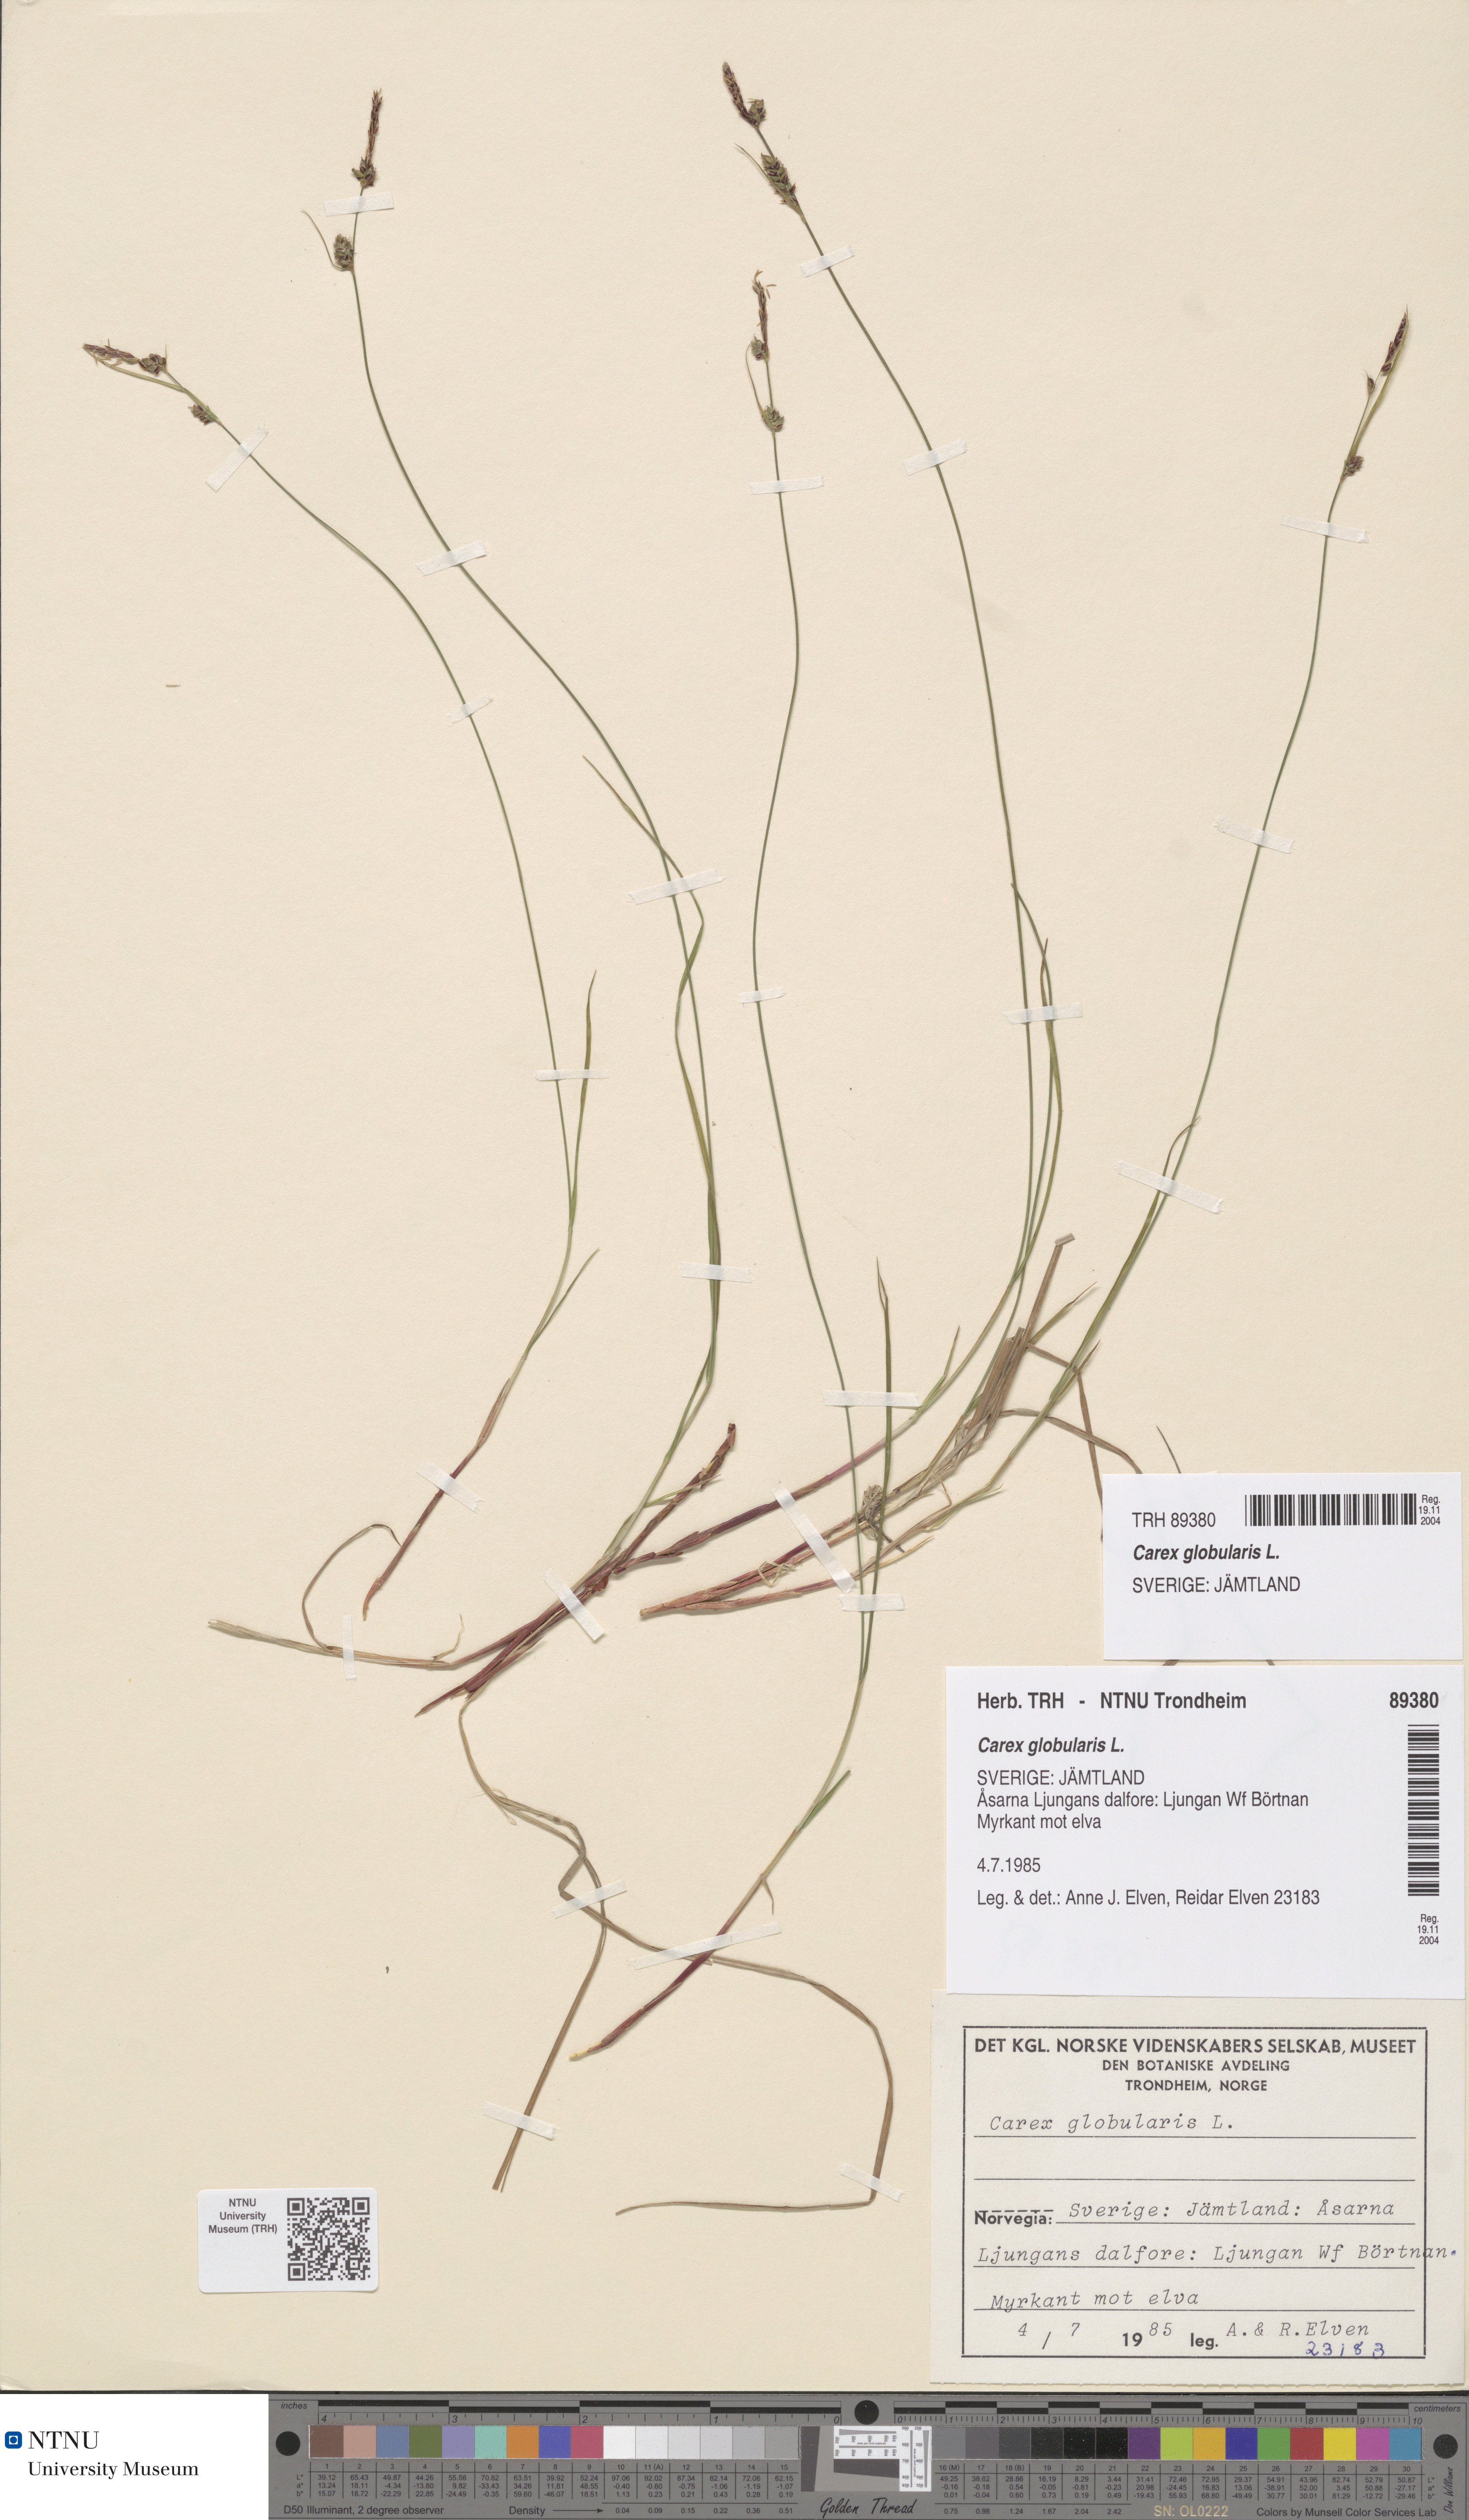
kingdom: Plantae
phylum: Tracheophyta
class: Liliopsida
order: Poales
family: Cyperaceae
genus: Carex
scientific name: Carex globularis
